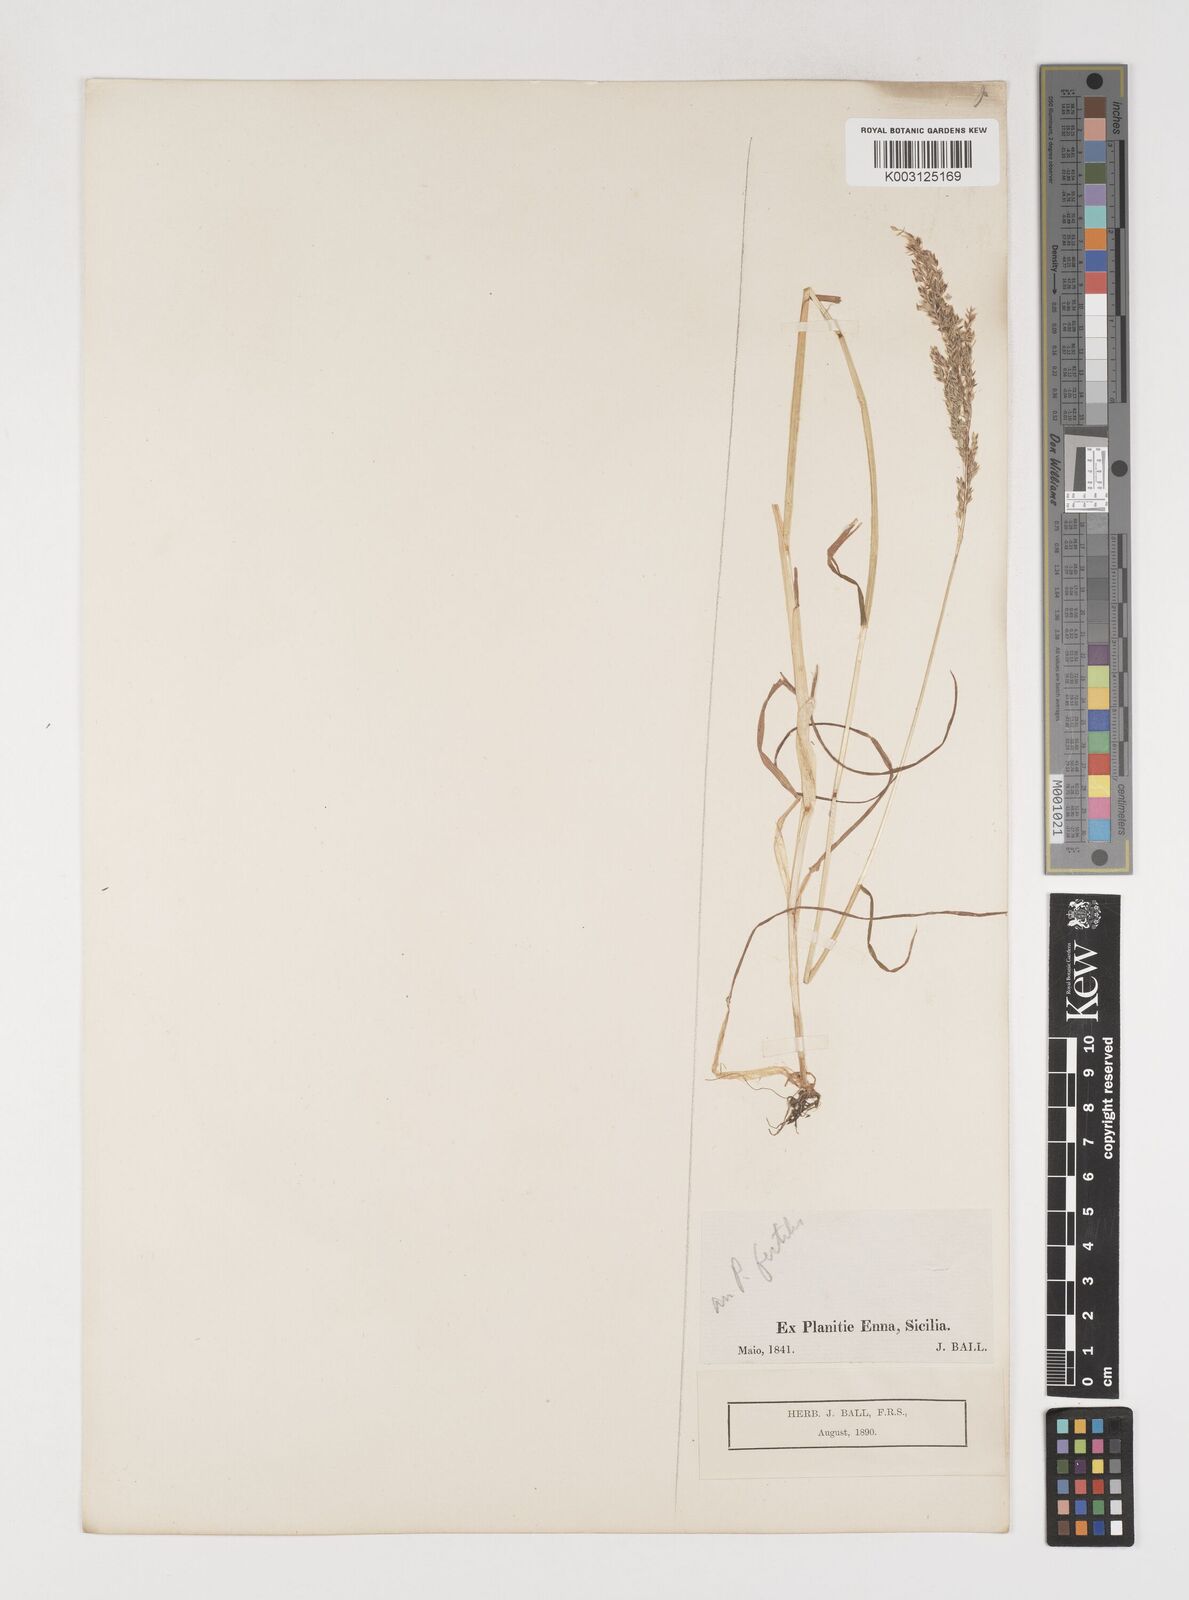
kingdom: Plantae
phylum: Tracheophyta
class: Liliopsida
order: Poales
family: Poaceae
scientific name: Poaceae
